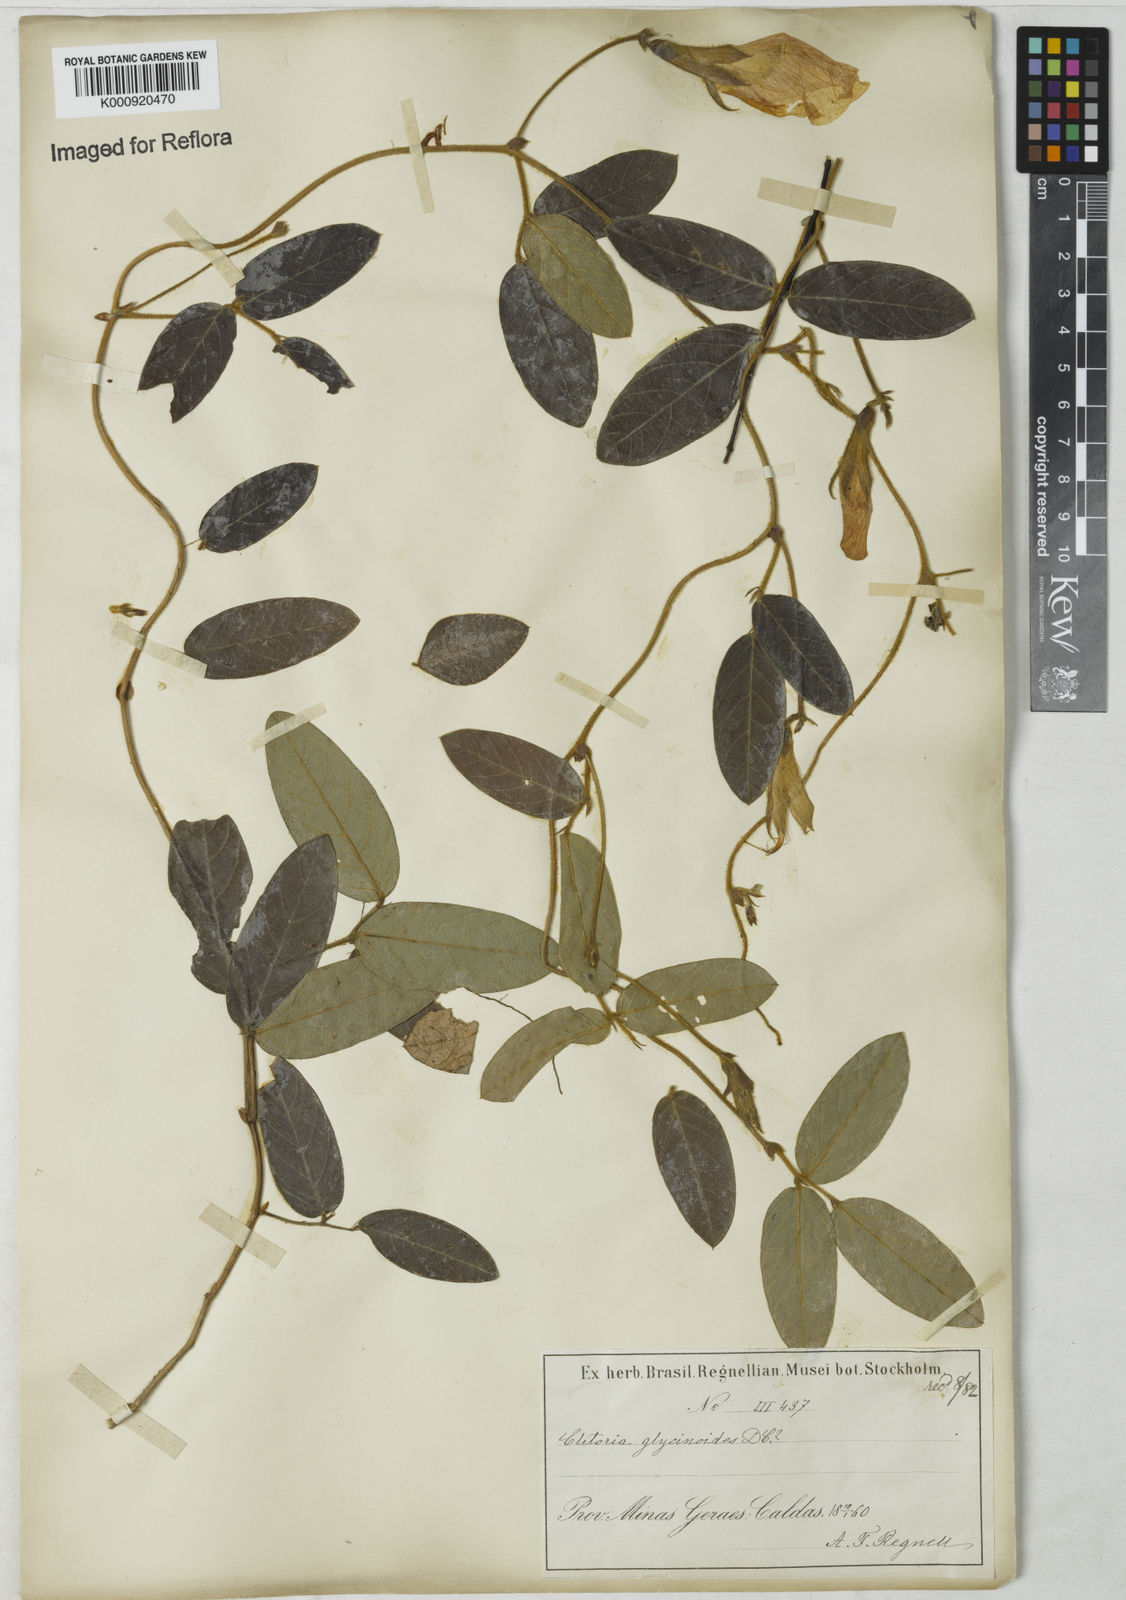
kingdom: Plantae
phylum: Tracheophyta
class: Magnoliopsida
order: Fabales
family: Fabaceae
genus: Clitoria
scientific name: Clitoria
